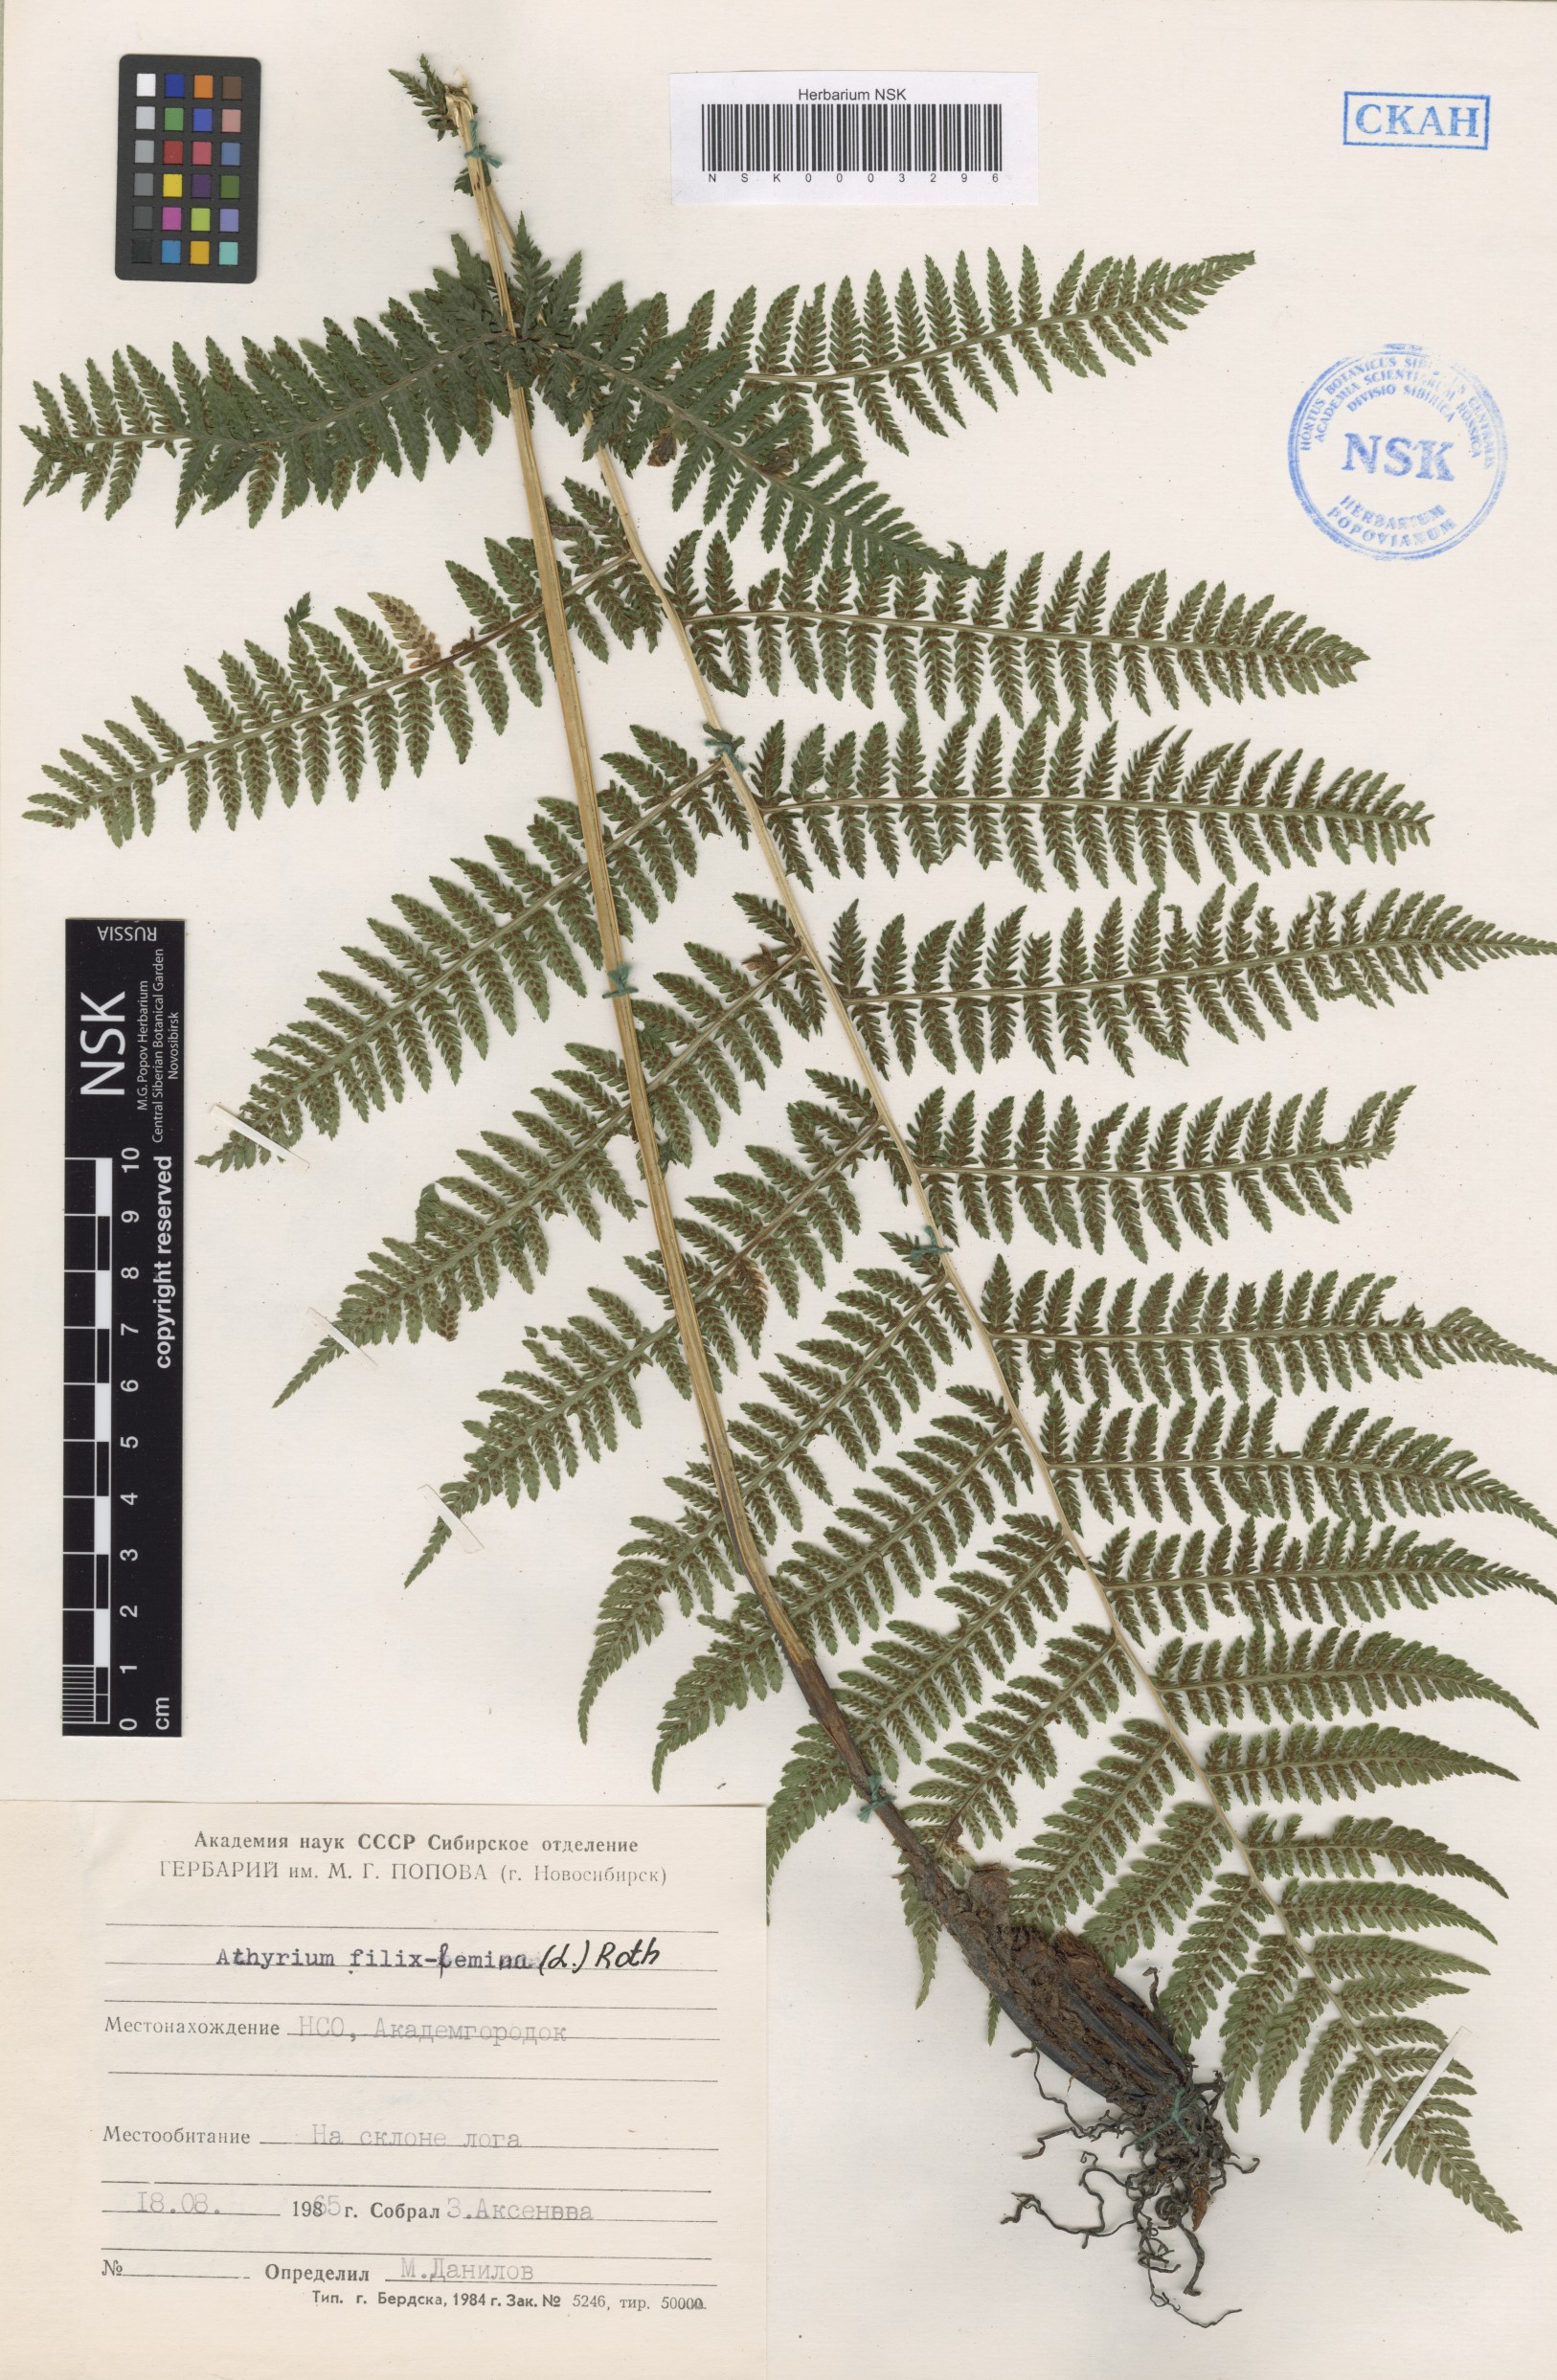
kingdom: Plantae
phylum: Tracheophyta
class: Polypodiopsida
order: Polypodiales
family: Athyriaceae
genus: Athyrium
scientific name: Athyrium filix-femina
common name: Lady fern
